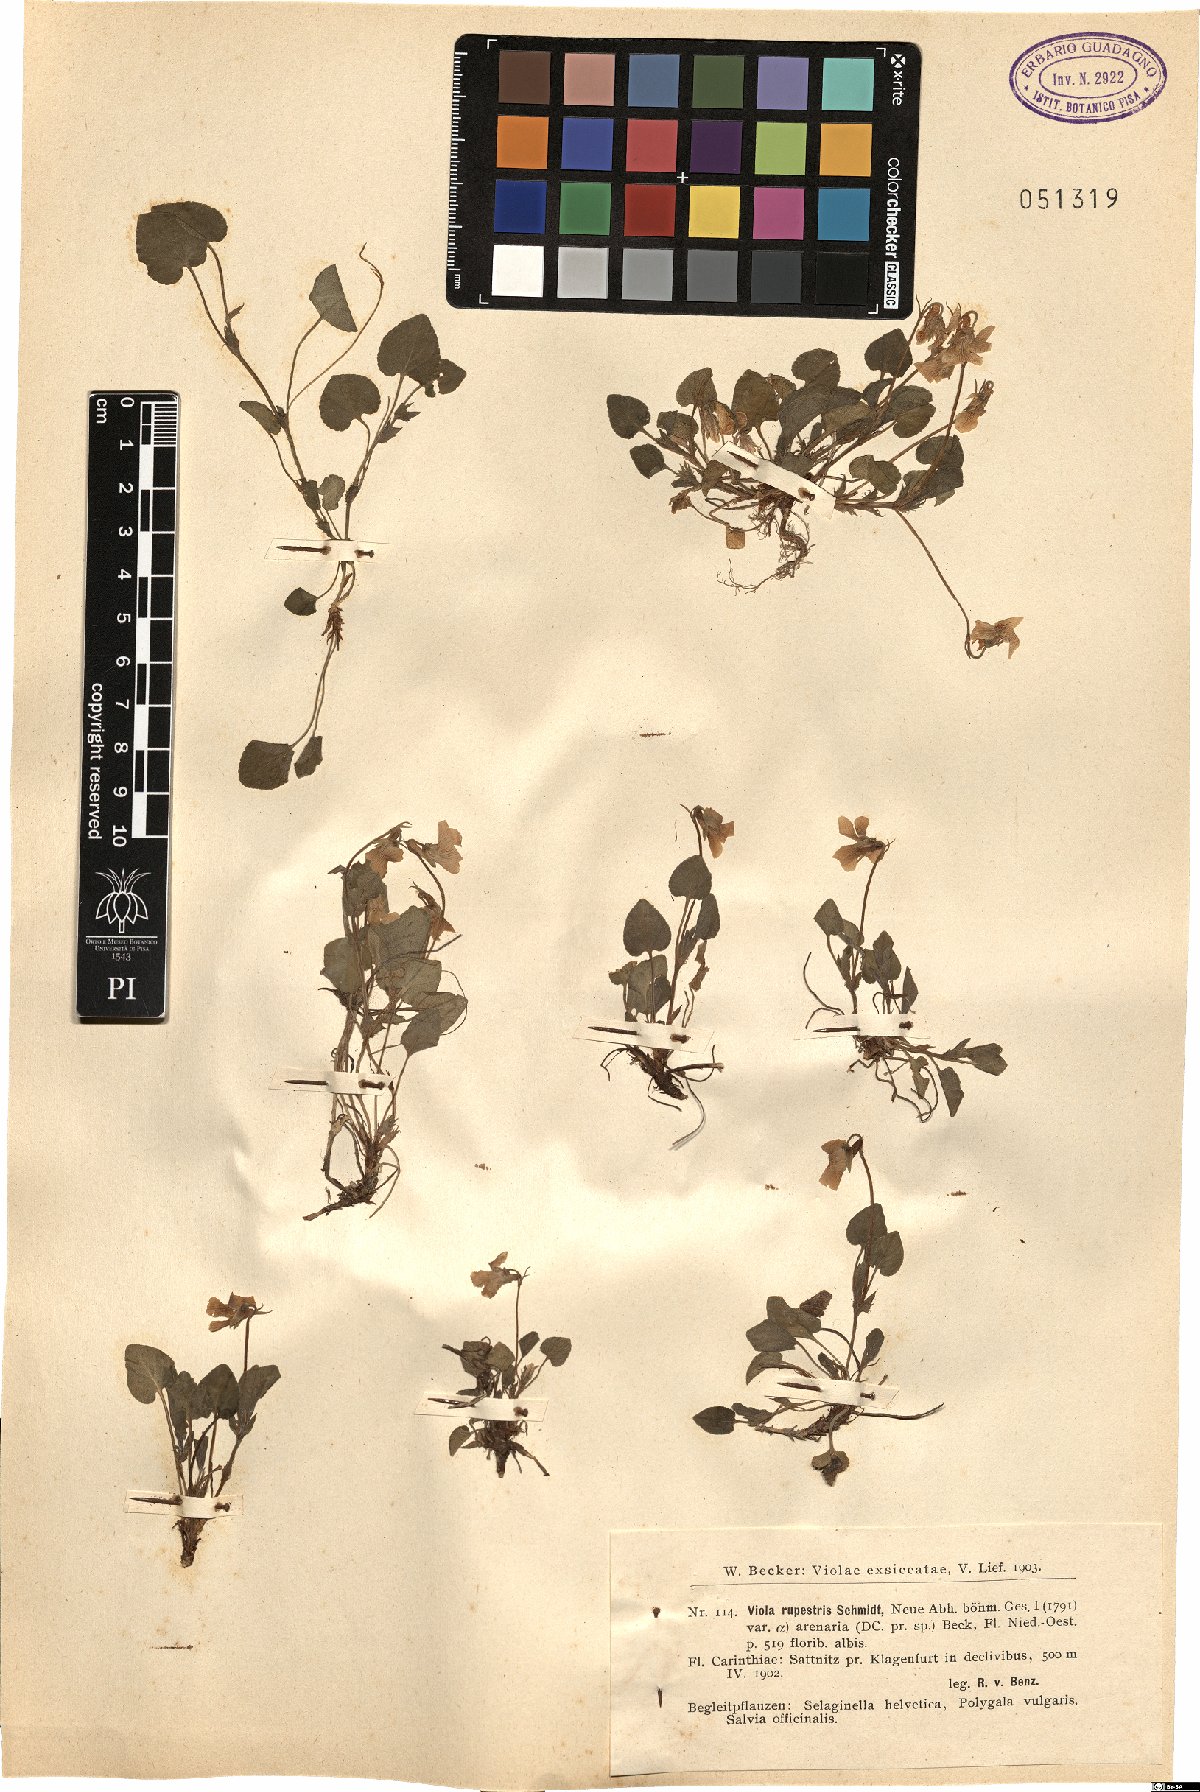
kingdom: Plantae
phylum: Tracheophyta
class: Magnoliopsida
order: Malpighiales
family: Violaceae
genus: Viola
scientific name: Viola rupestris
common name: Teesdale violet
